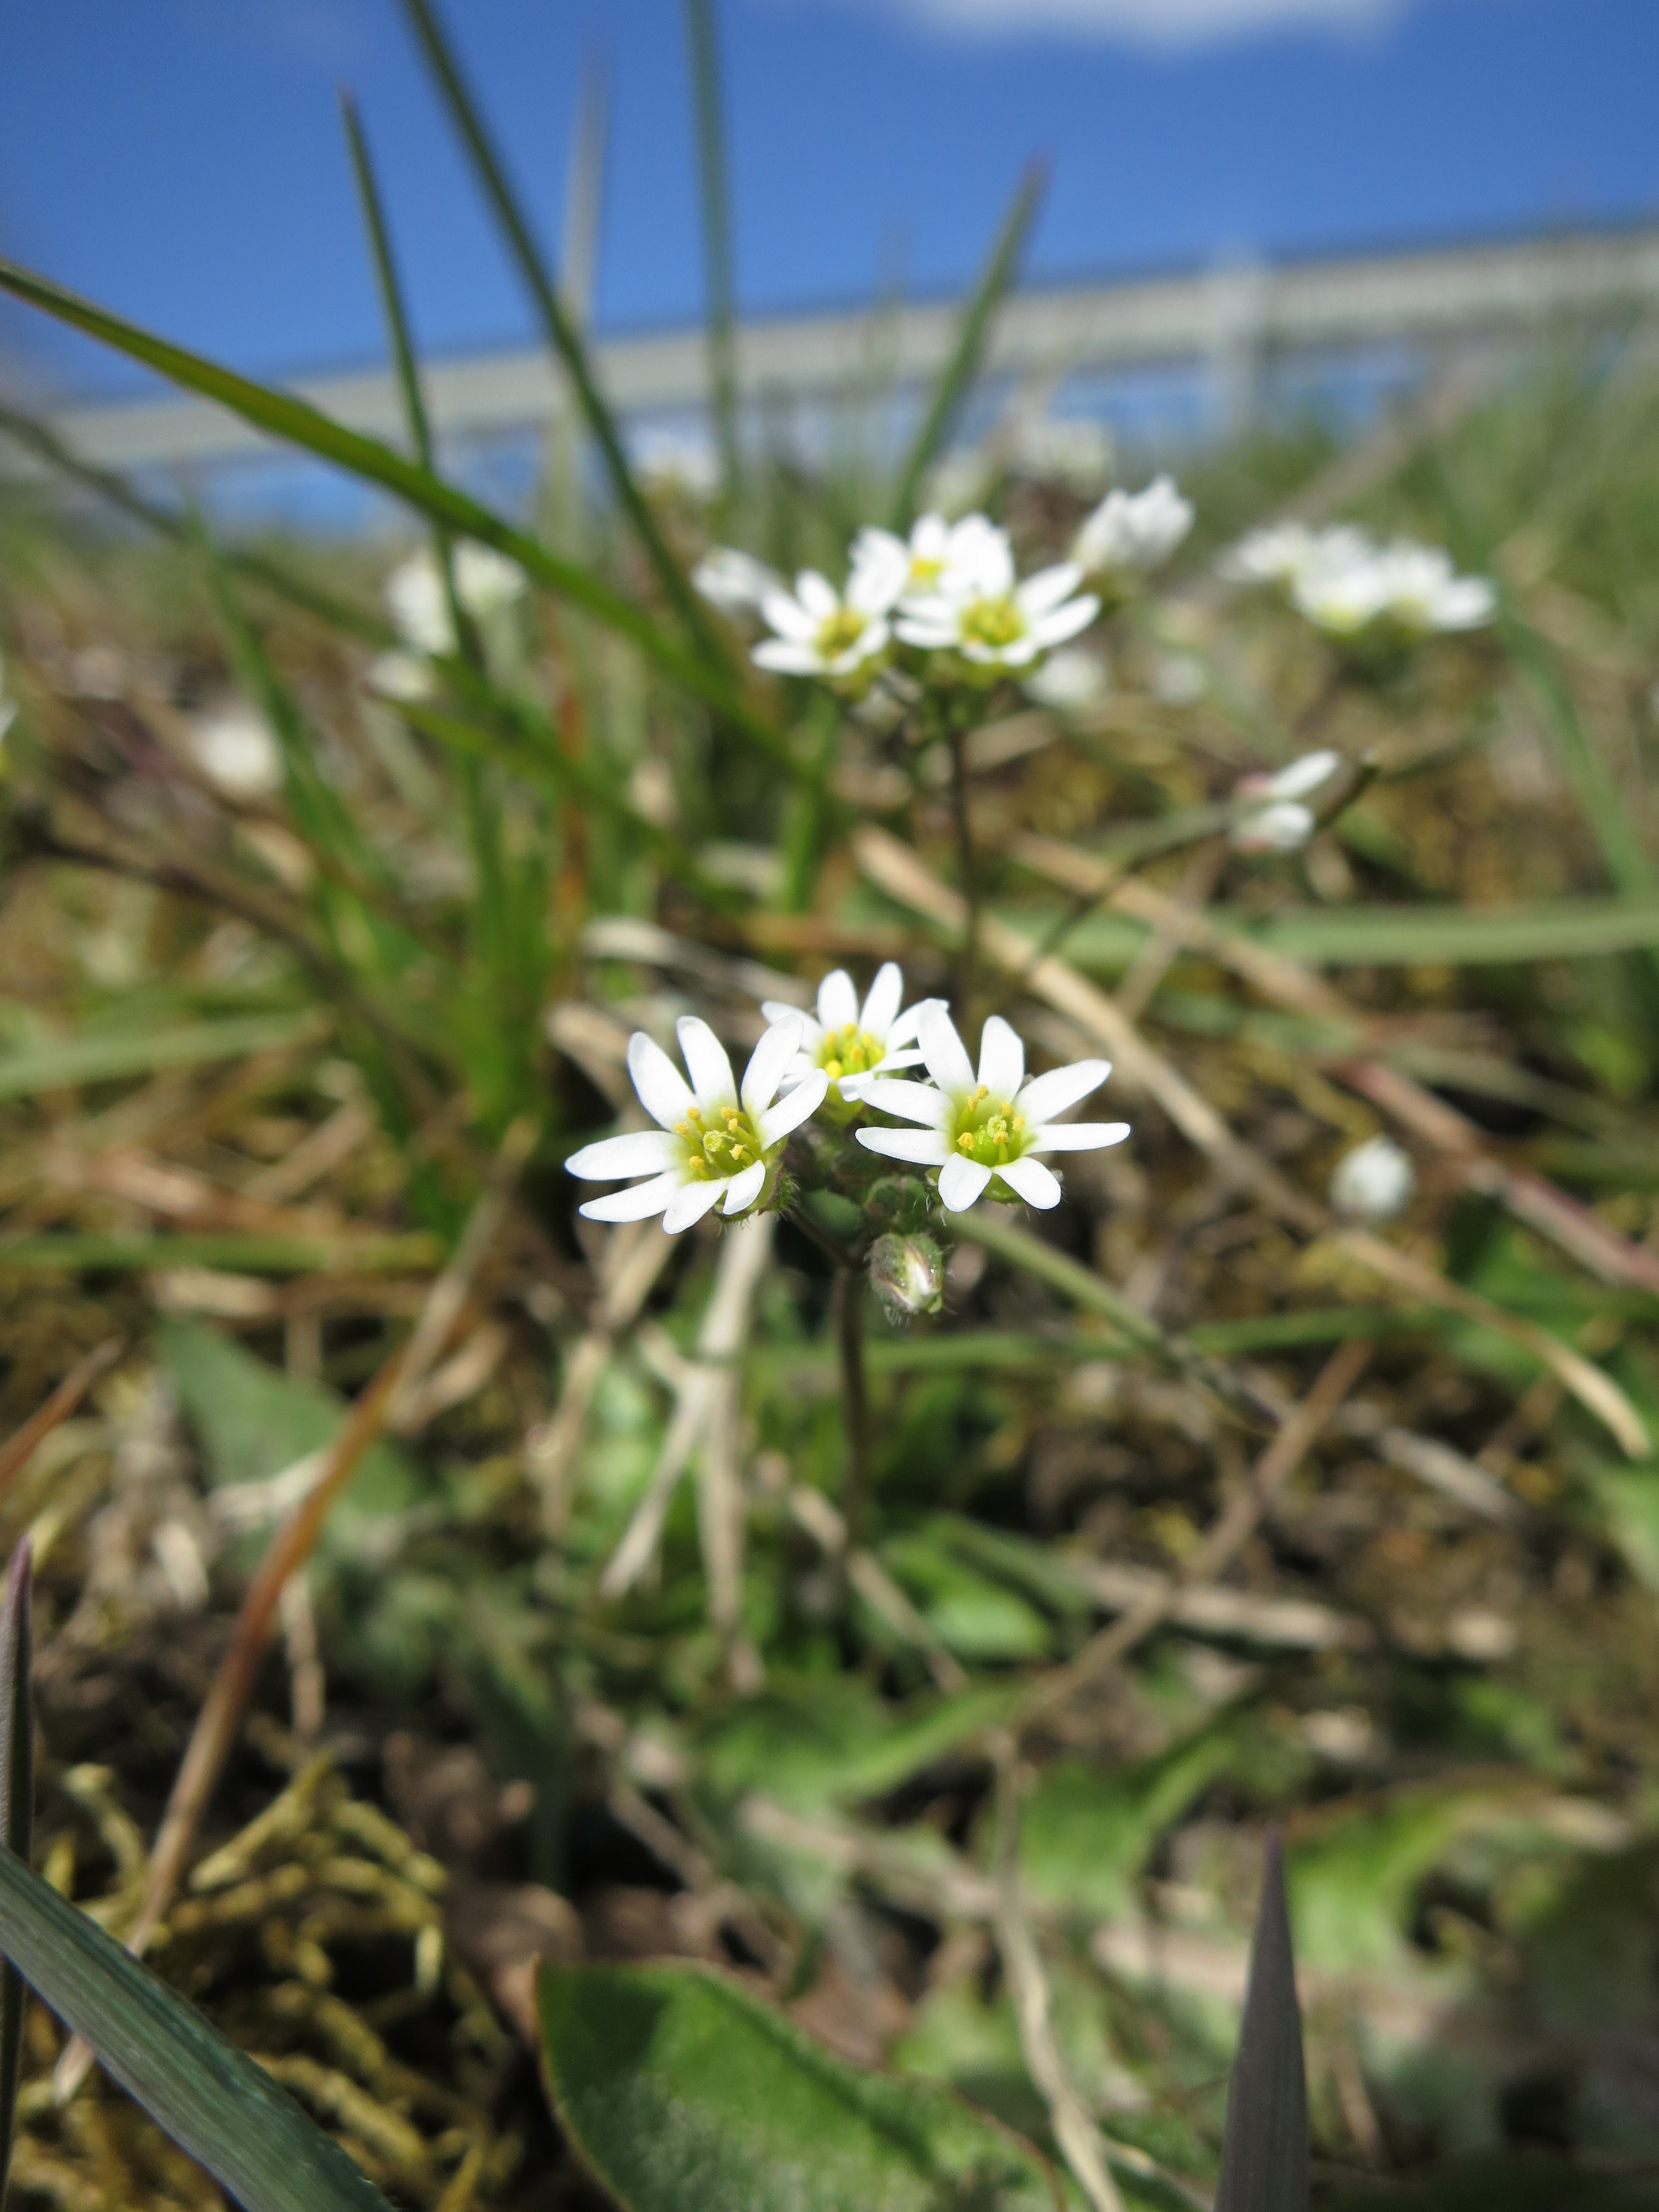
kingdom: Plantae
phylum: Tracheophyta
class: Magnoliopsida
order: Brassicales
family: Brassicaceae
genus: Draba
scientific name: Draba verna
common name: Spring draba
